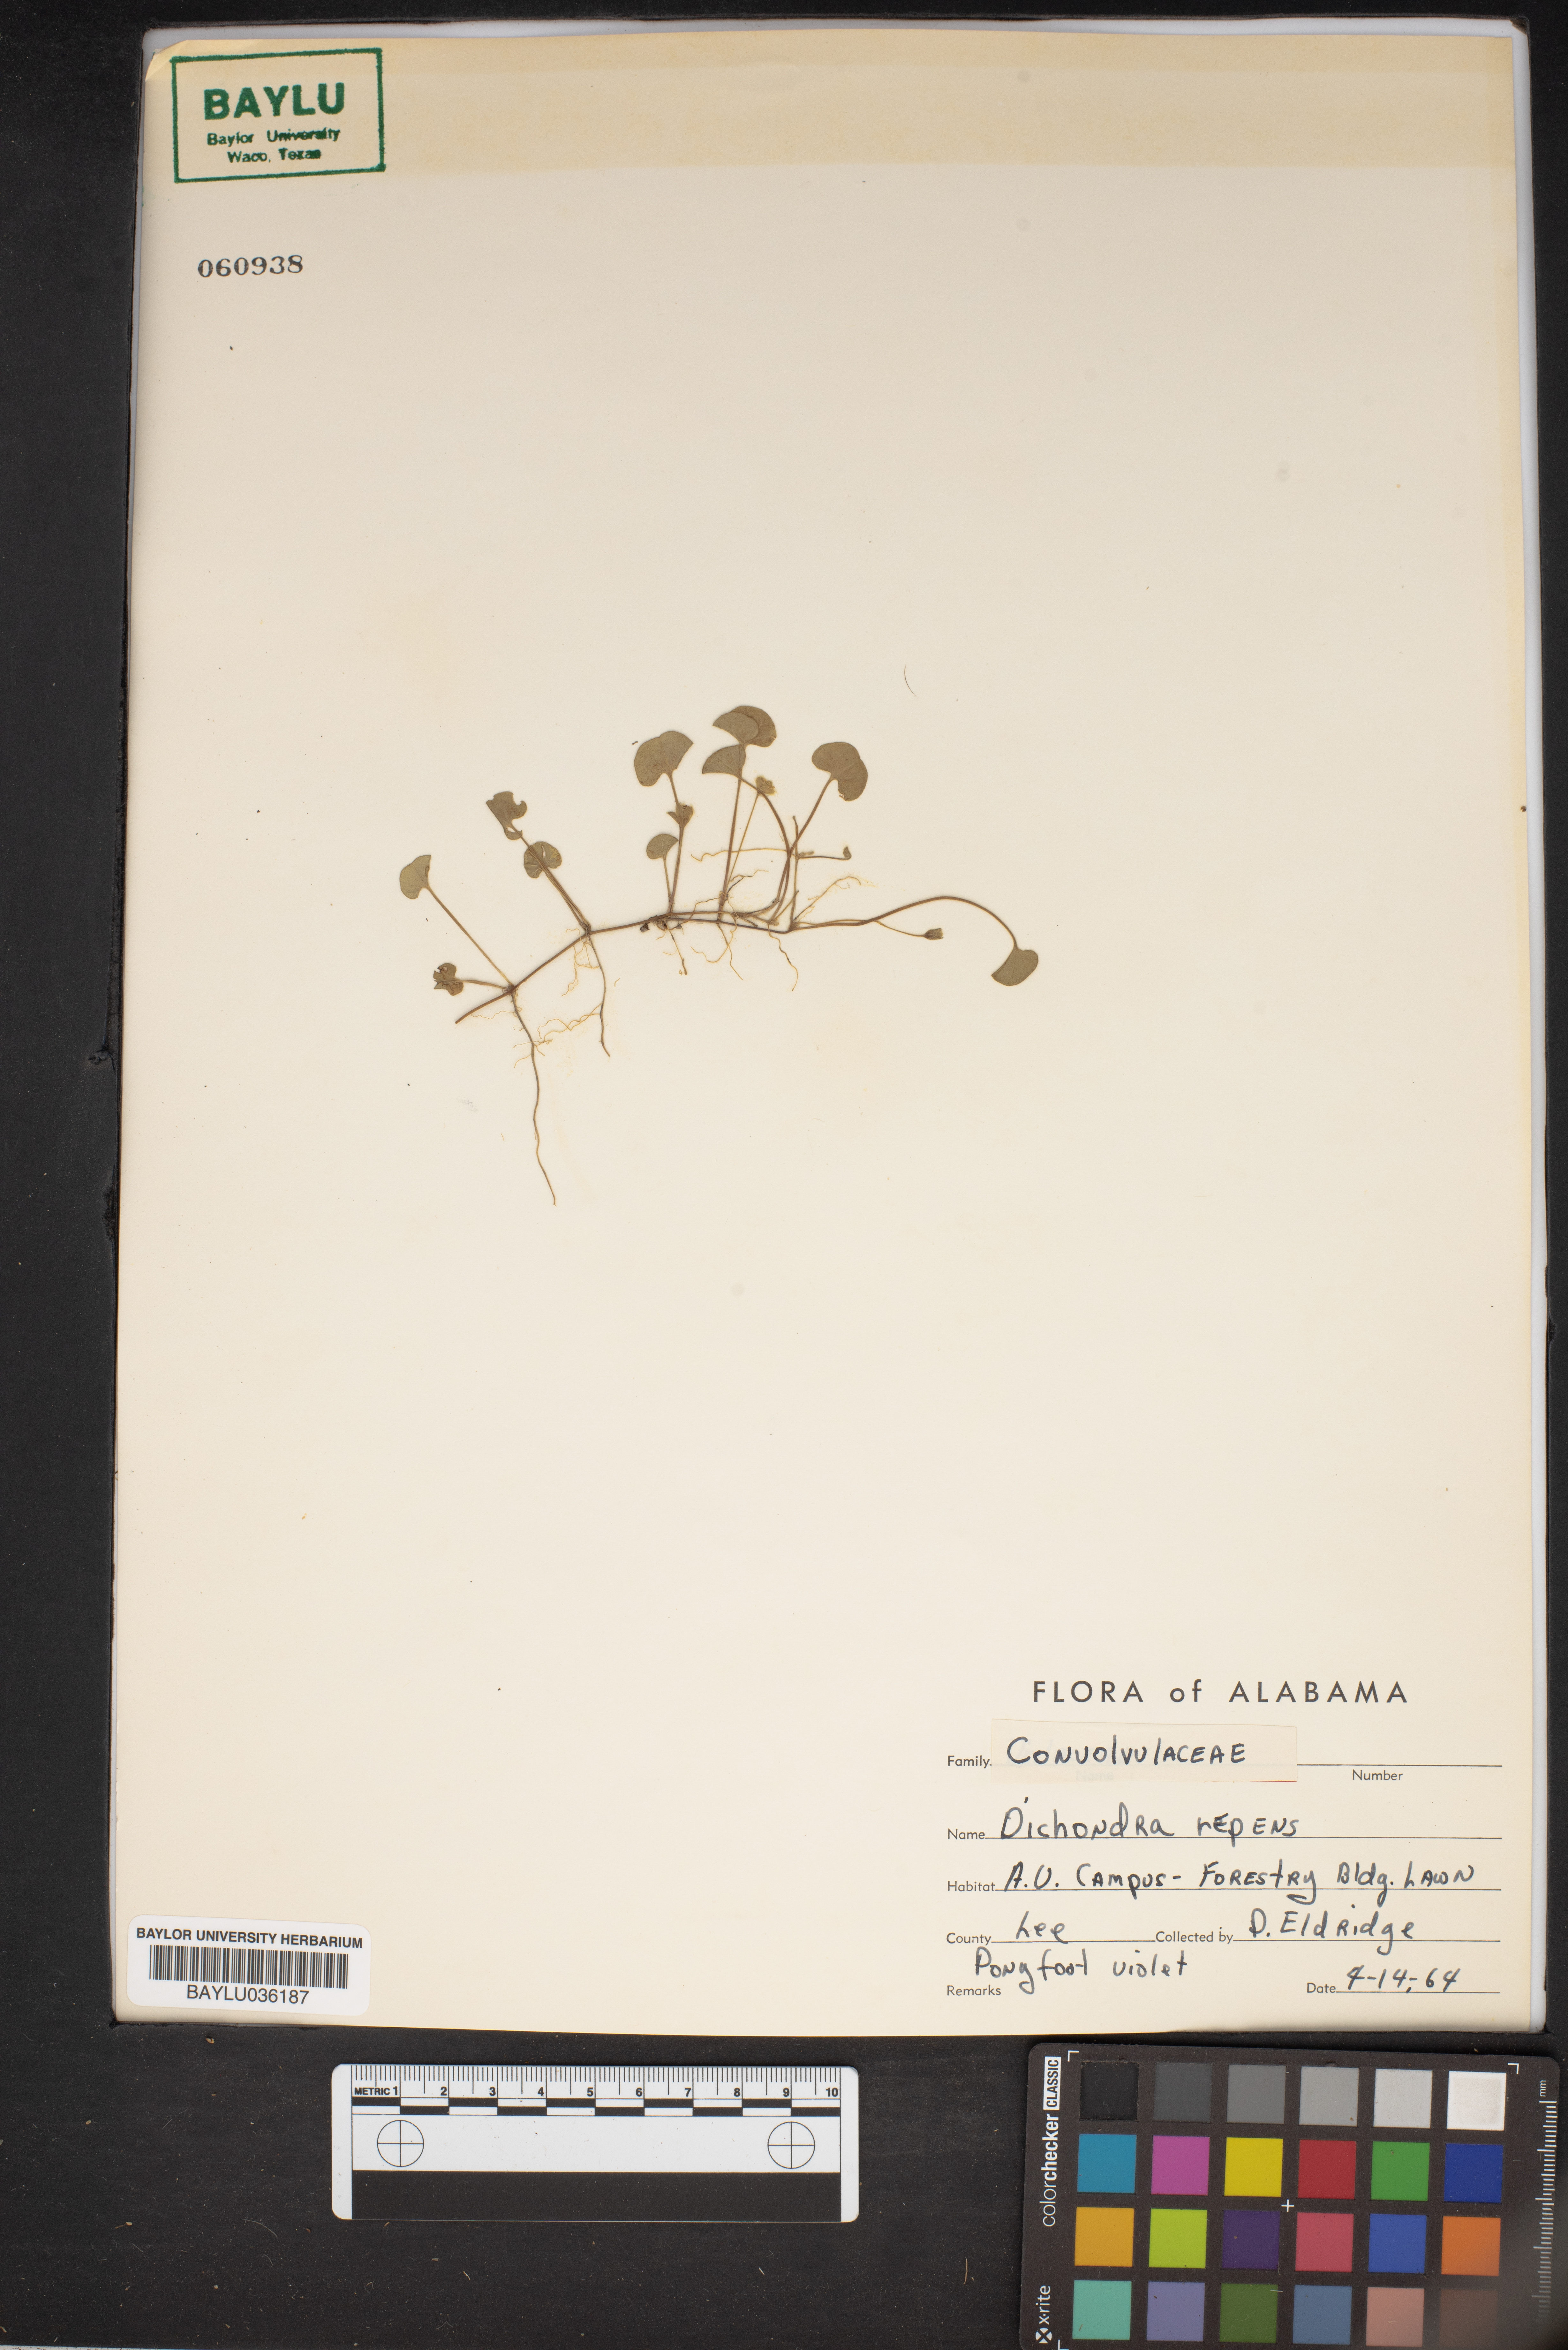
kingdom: Plantae
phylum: Tracheophyta
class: Magnoliopsida
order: Solanales
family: Convolvulaceae
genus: Dichondra
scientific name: Dichondra repens
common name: Kidneyweed
